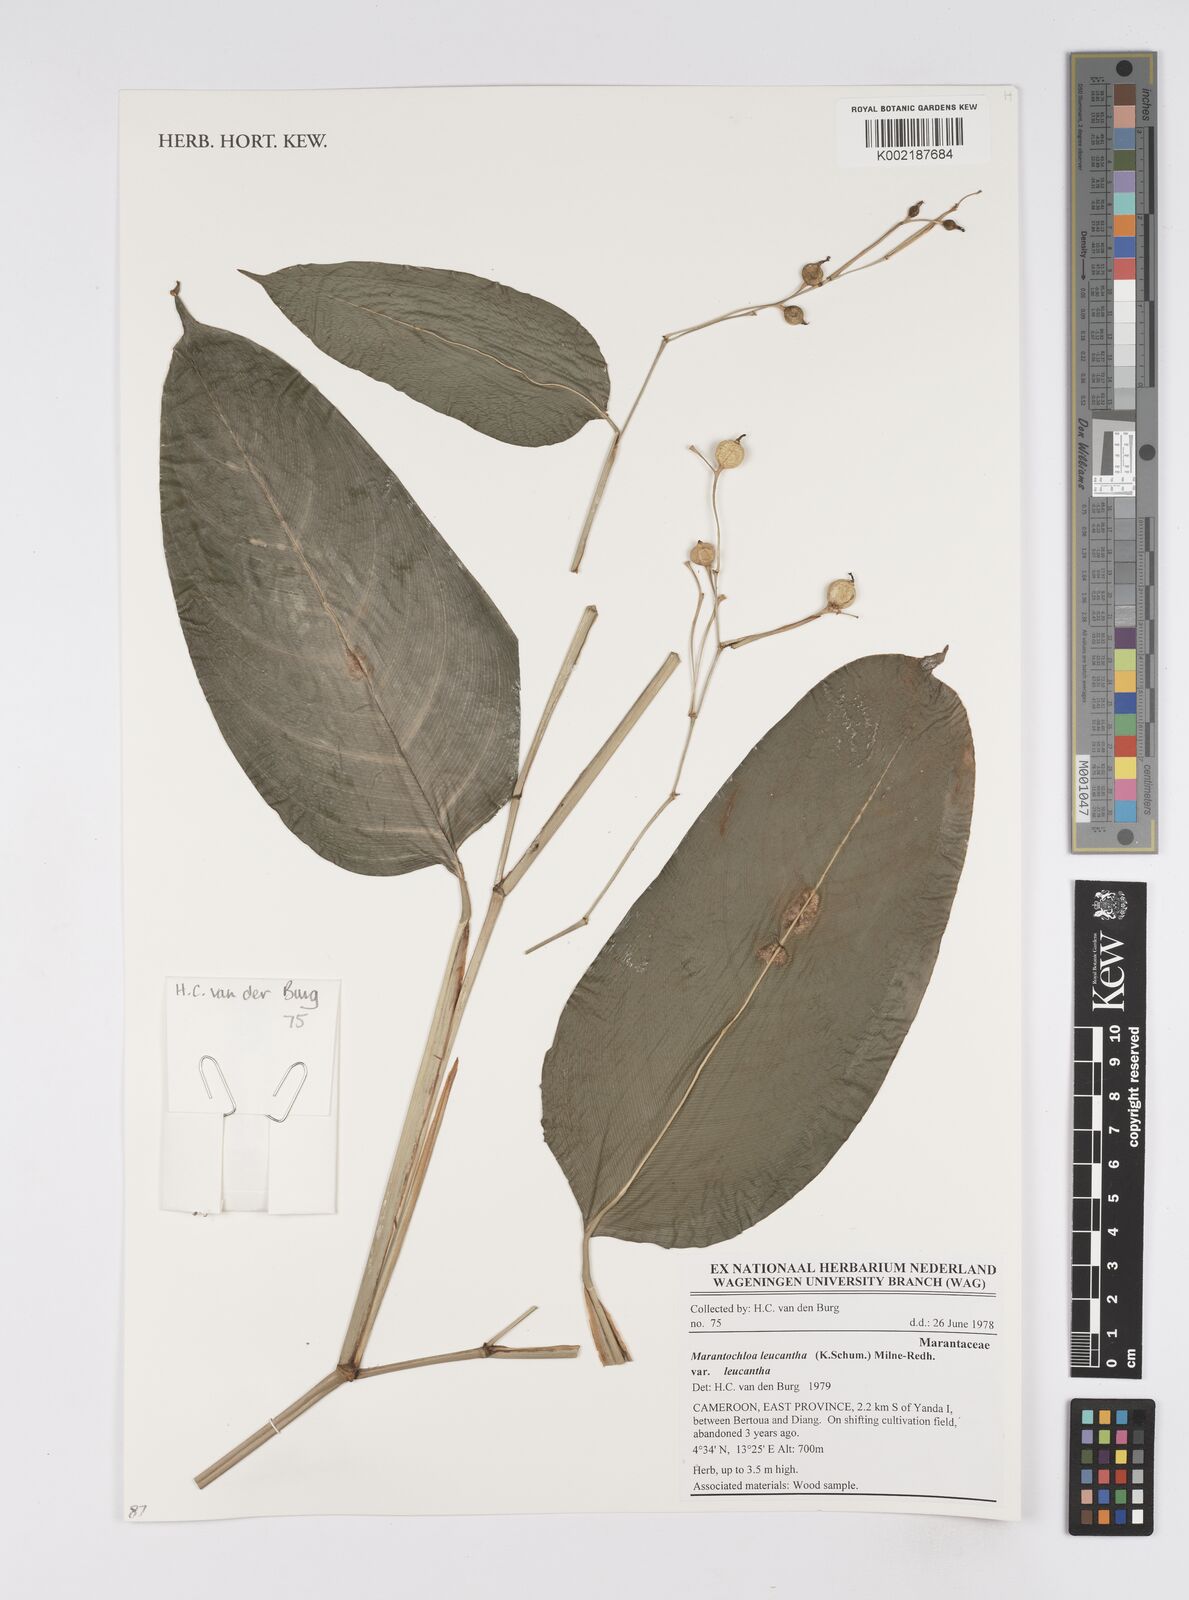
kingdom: Plantae
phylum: Tracheophyta
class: Liliopsida
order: Zingiberales
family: Marantaceae
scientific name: Marantaceae
